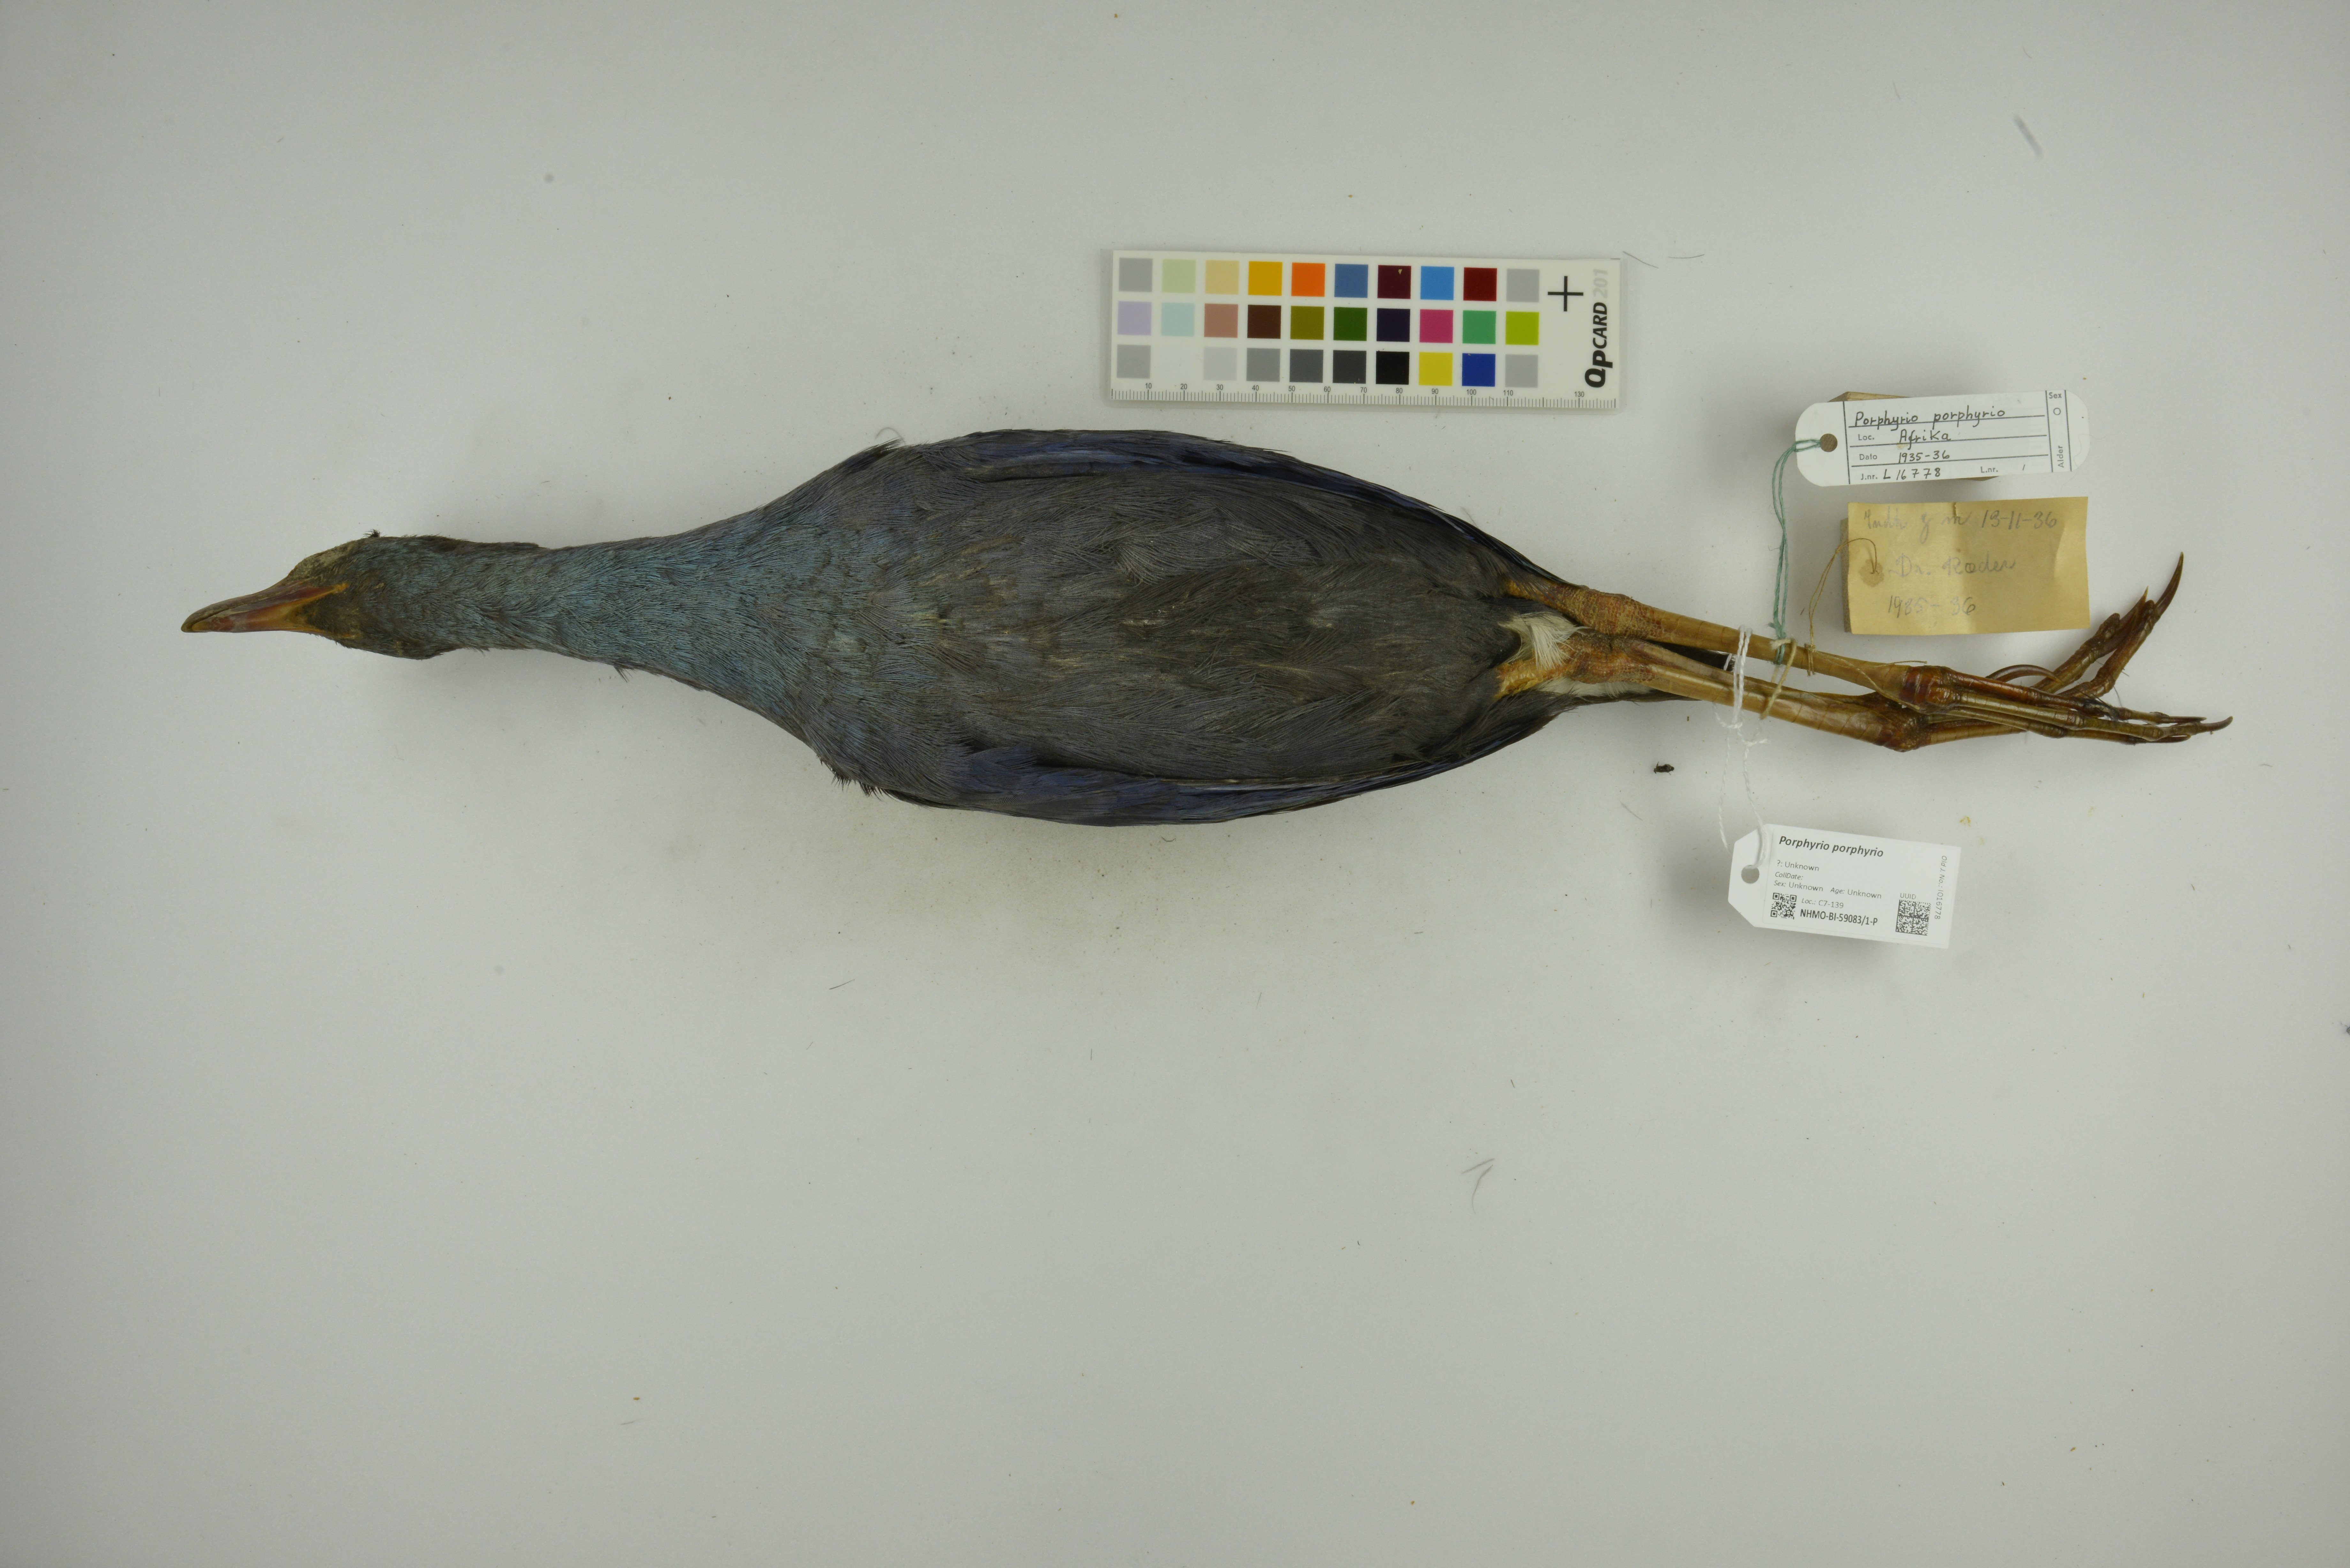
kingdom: Animalia
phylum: Chordata
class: Aves
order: Gruiformes
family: Rallidae
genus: Porphyrio
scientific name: Porphyrio porphyrio
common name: Purple swamphen
